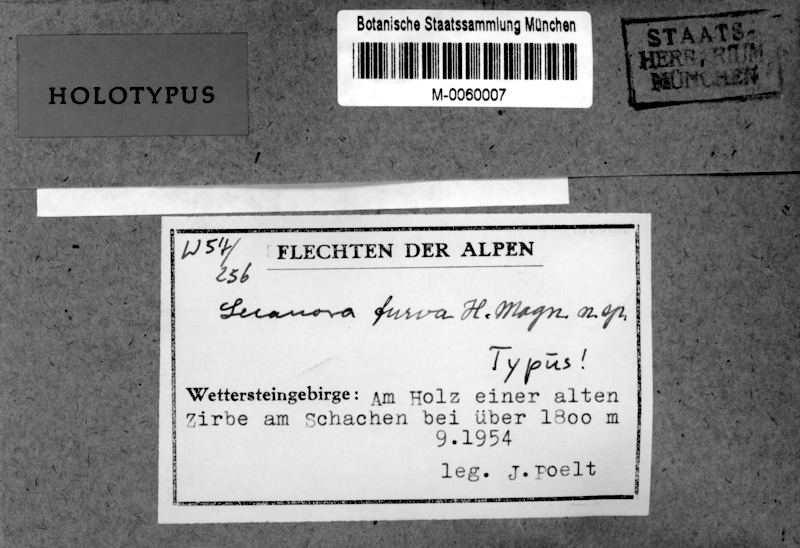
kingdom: Fungi
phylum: Ascomycota
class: Lecanoromycetes
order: Lecanorales
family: Parmeliaceae
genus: Protoparmelia
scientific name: Protoparmelia oleagina
